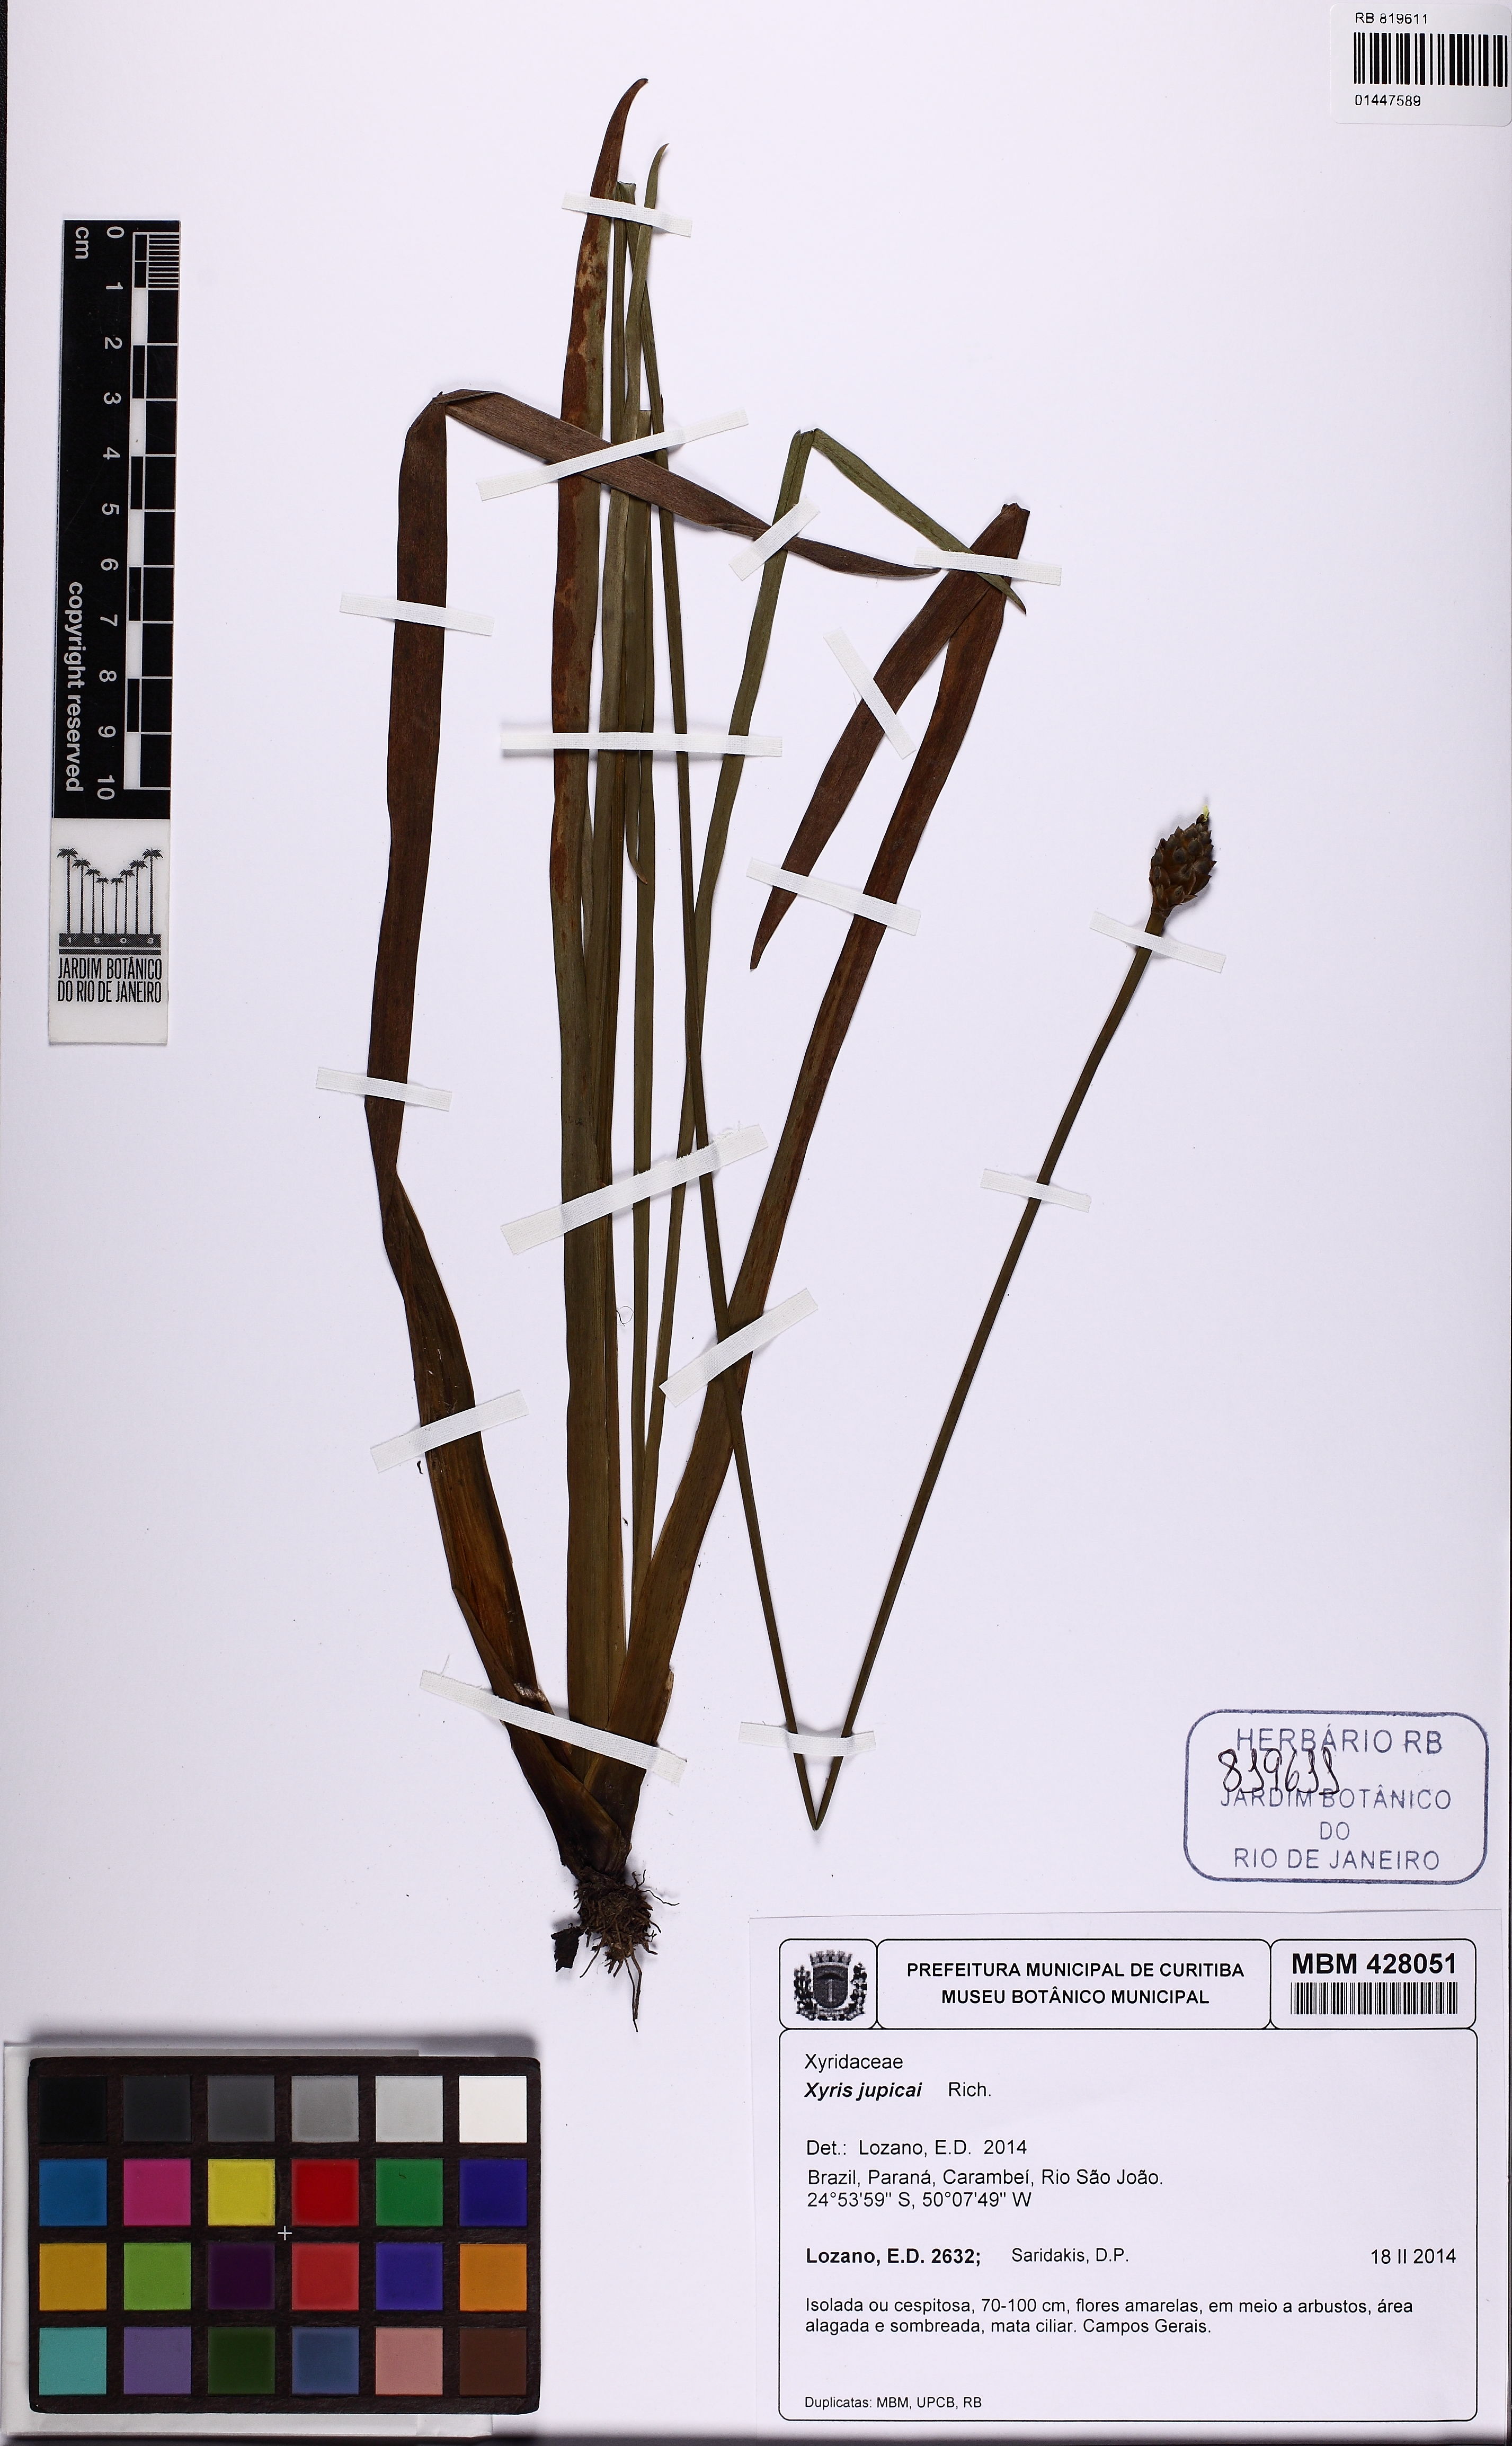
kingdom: Plantae
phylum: Tracheophyta
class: Liliopsida
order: Poales
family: Xyridaceae
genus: Xyris
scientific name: Xyris jupicai
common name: Richard's yelloweyed grass
